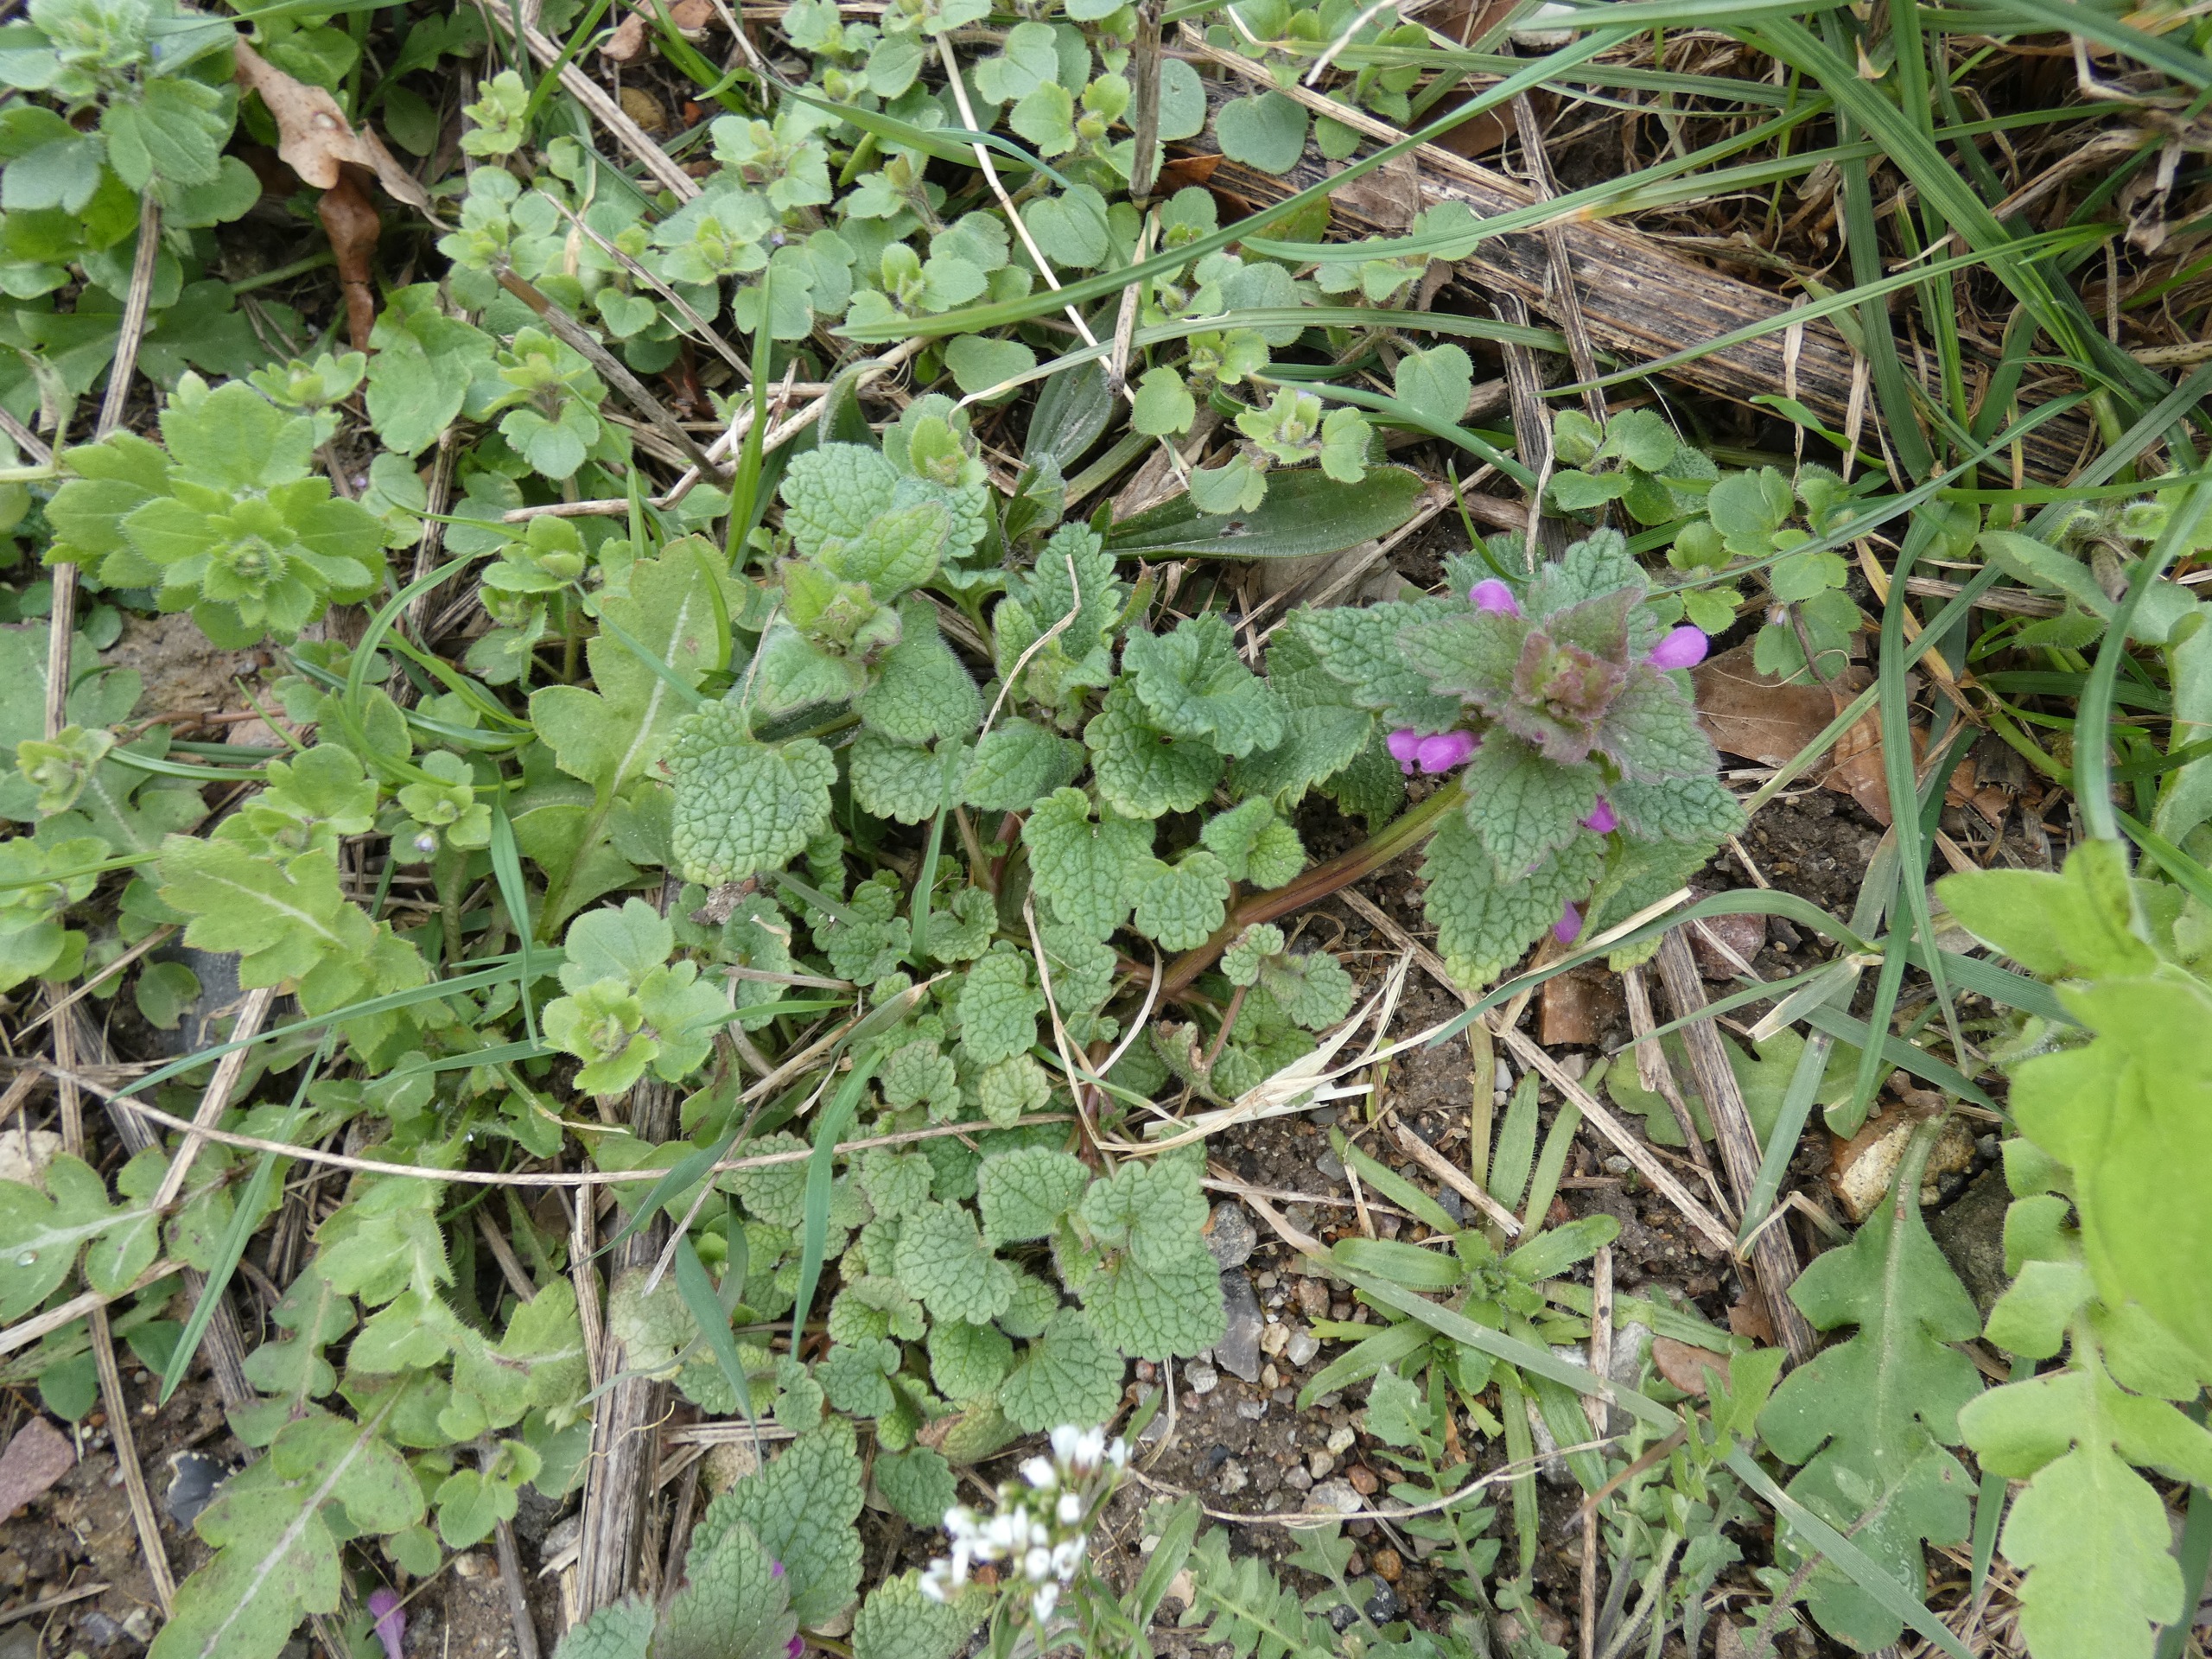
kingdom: Plantae
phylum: Tracheophyta
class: Magnoliopsida
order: Lamiales
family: Lamiaceae
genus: Lamium
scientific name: Lamium purpureum
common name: Rød tvetand
